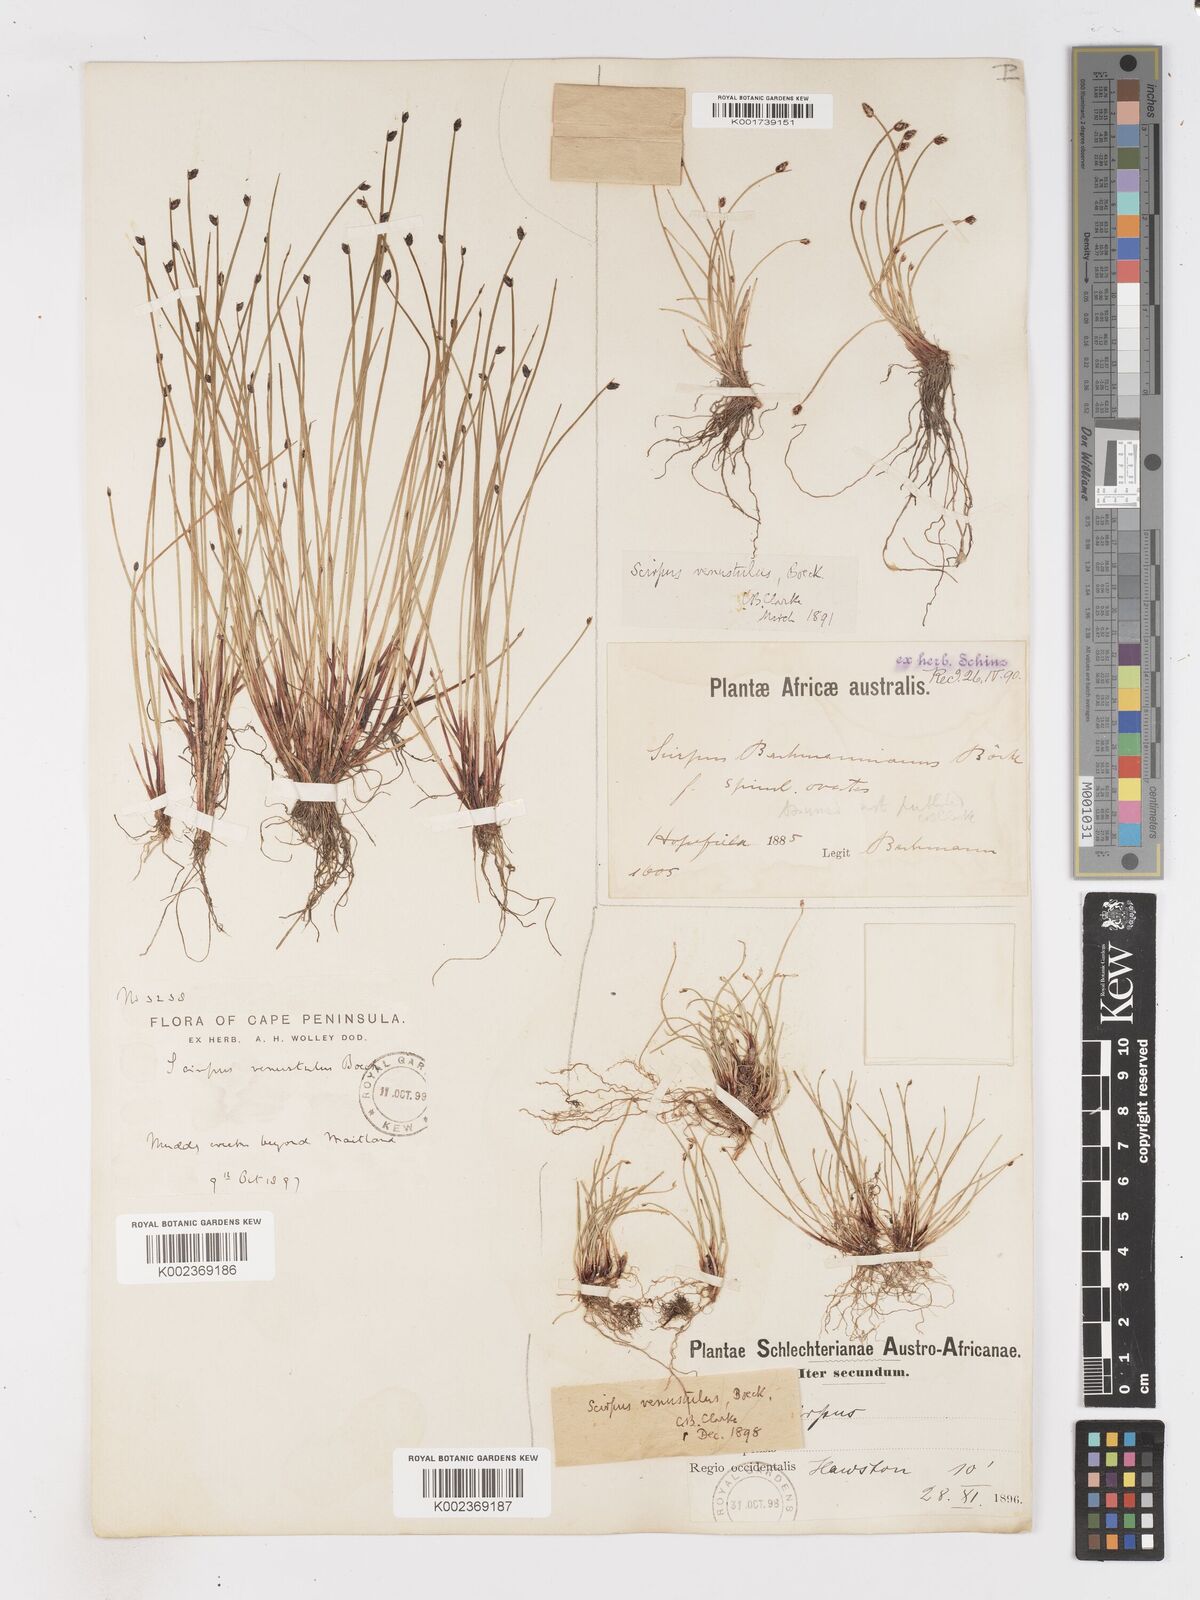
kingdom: Plantae
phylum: Tracheophyta
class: Liliopsida
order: Poales
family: Cyperaceae
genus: Isolepis
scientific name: Isolepis venustula
